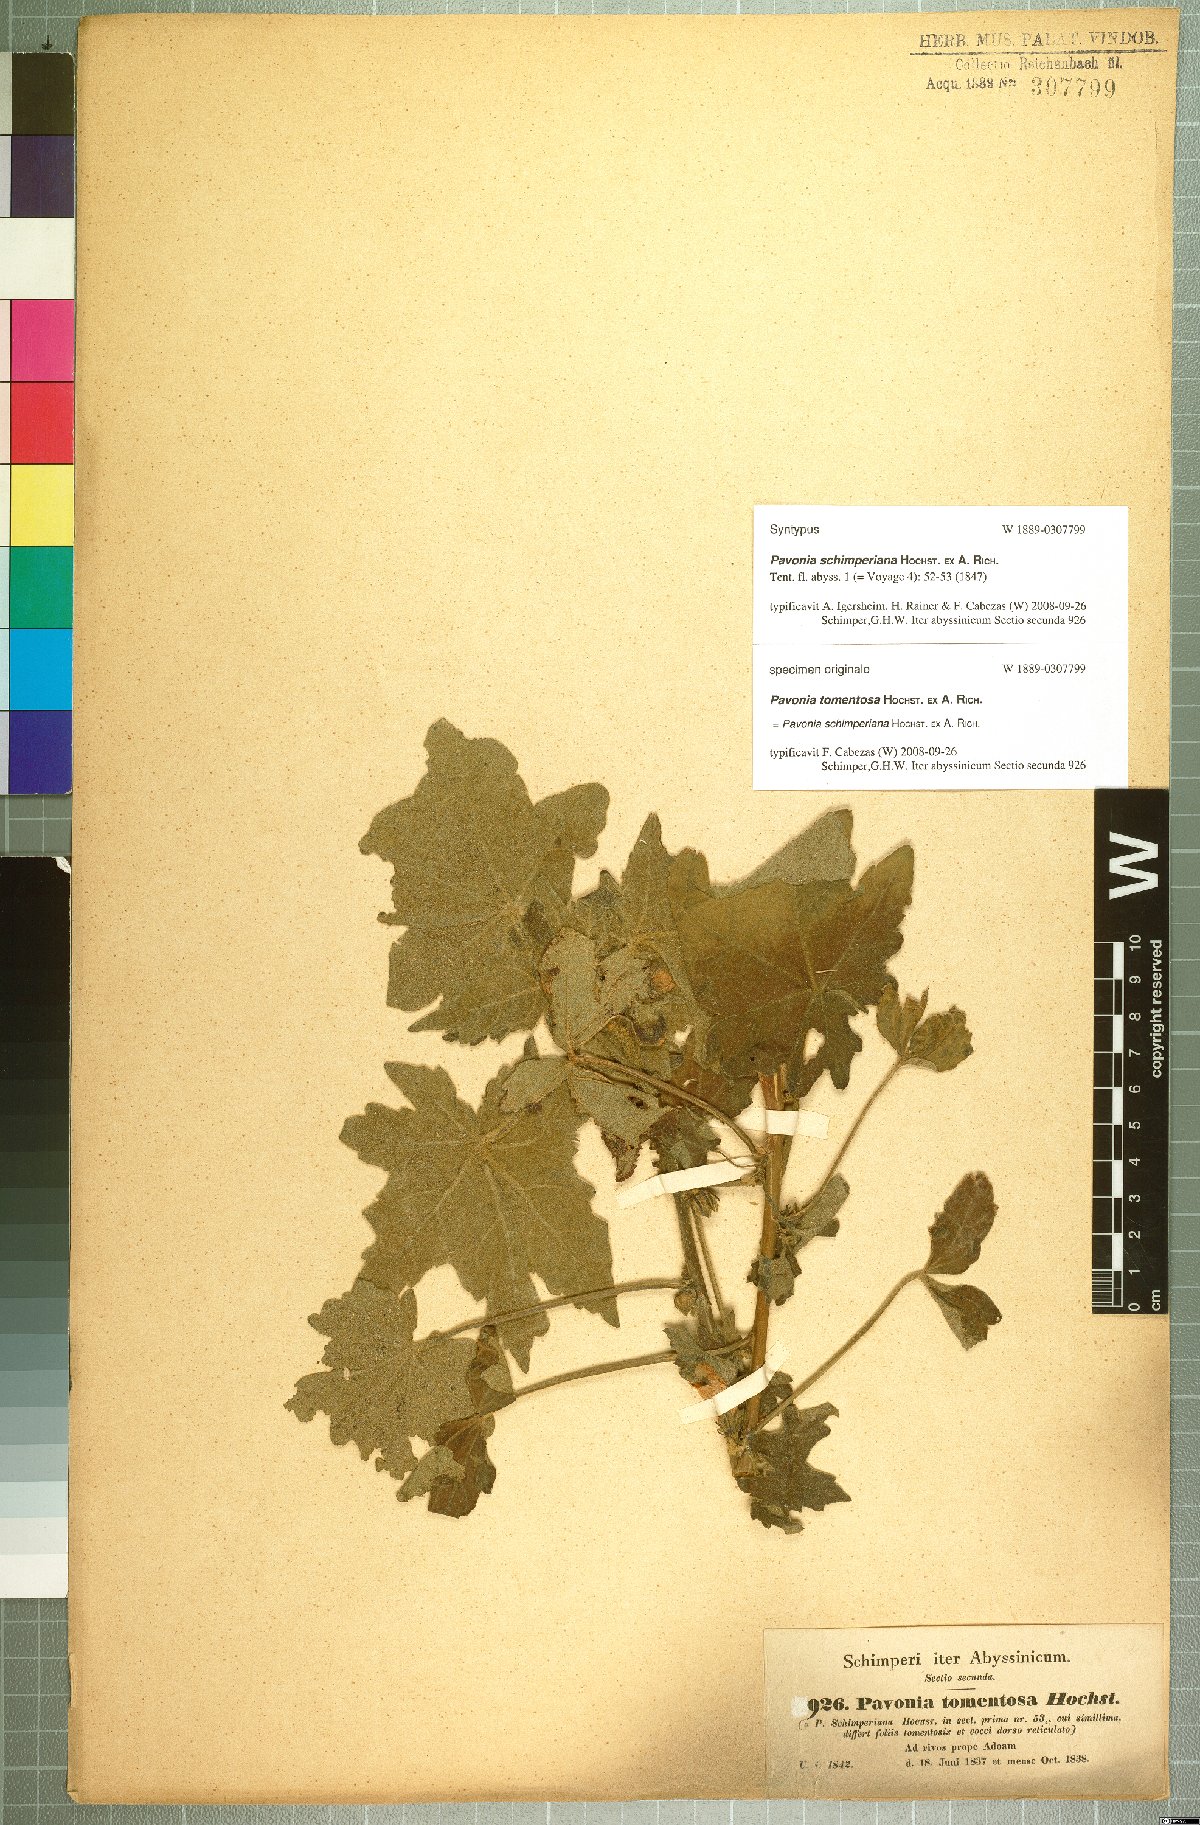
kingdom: Plantae
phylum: Tracheophyta
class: Magnoliopsida
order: Malvales
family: Malvaceae
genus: Pavonia
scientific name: Pavonia schimperiana
